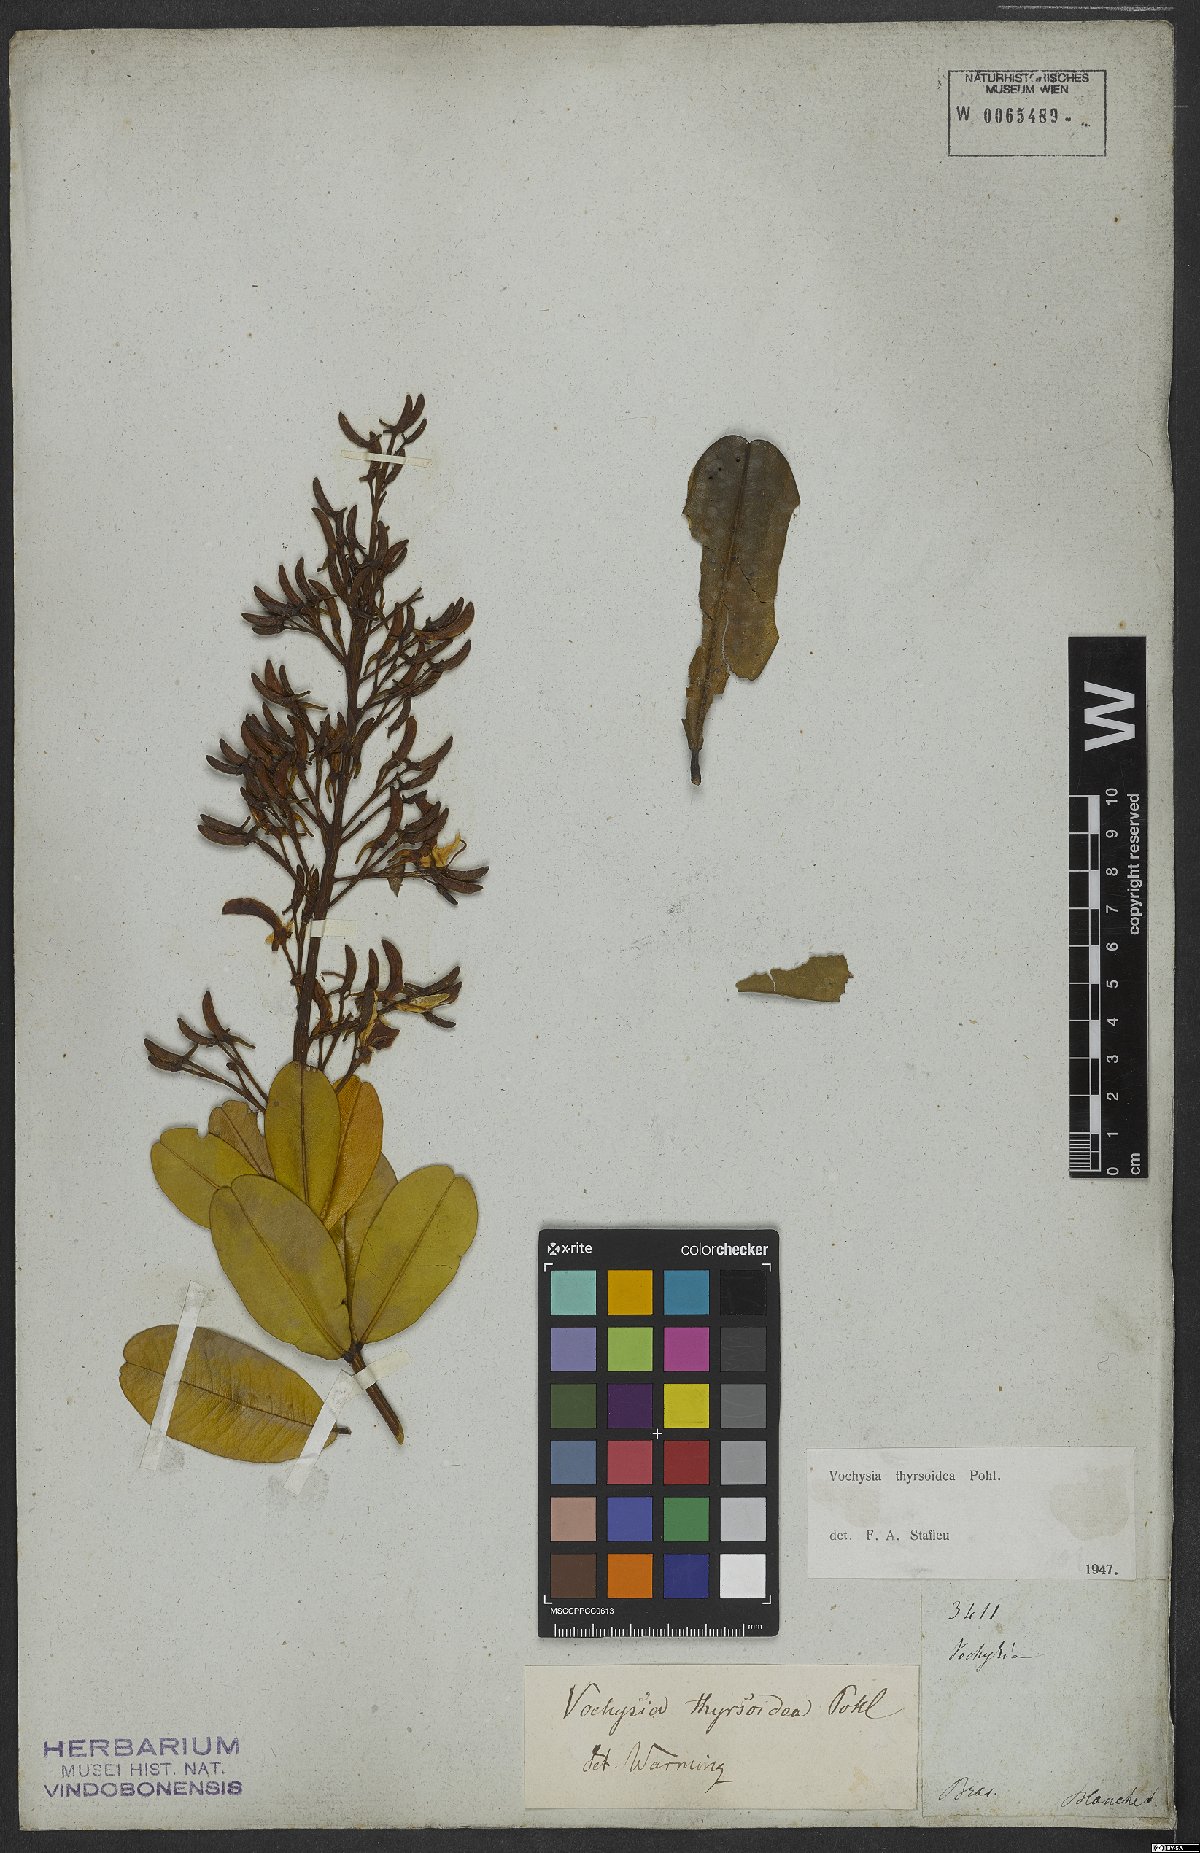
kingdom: Plantae
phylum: Tracheophyta
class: Magnoliopsida
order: Myrtales
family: Vochysiaceae
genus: Vochysia
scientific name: Vochysia thyrsoidea
